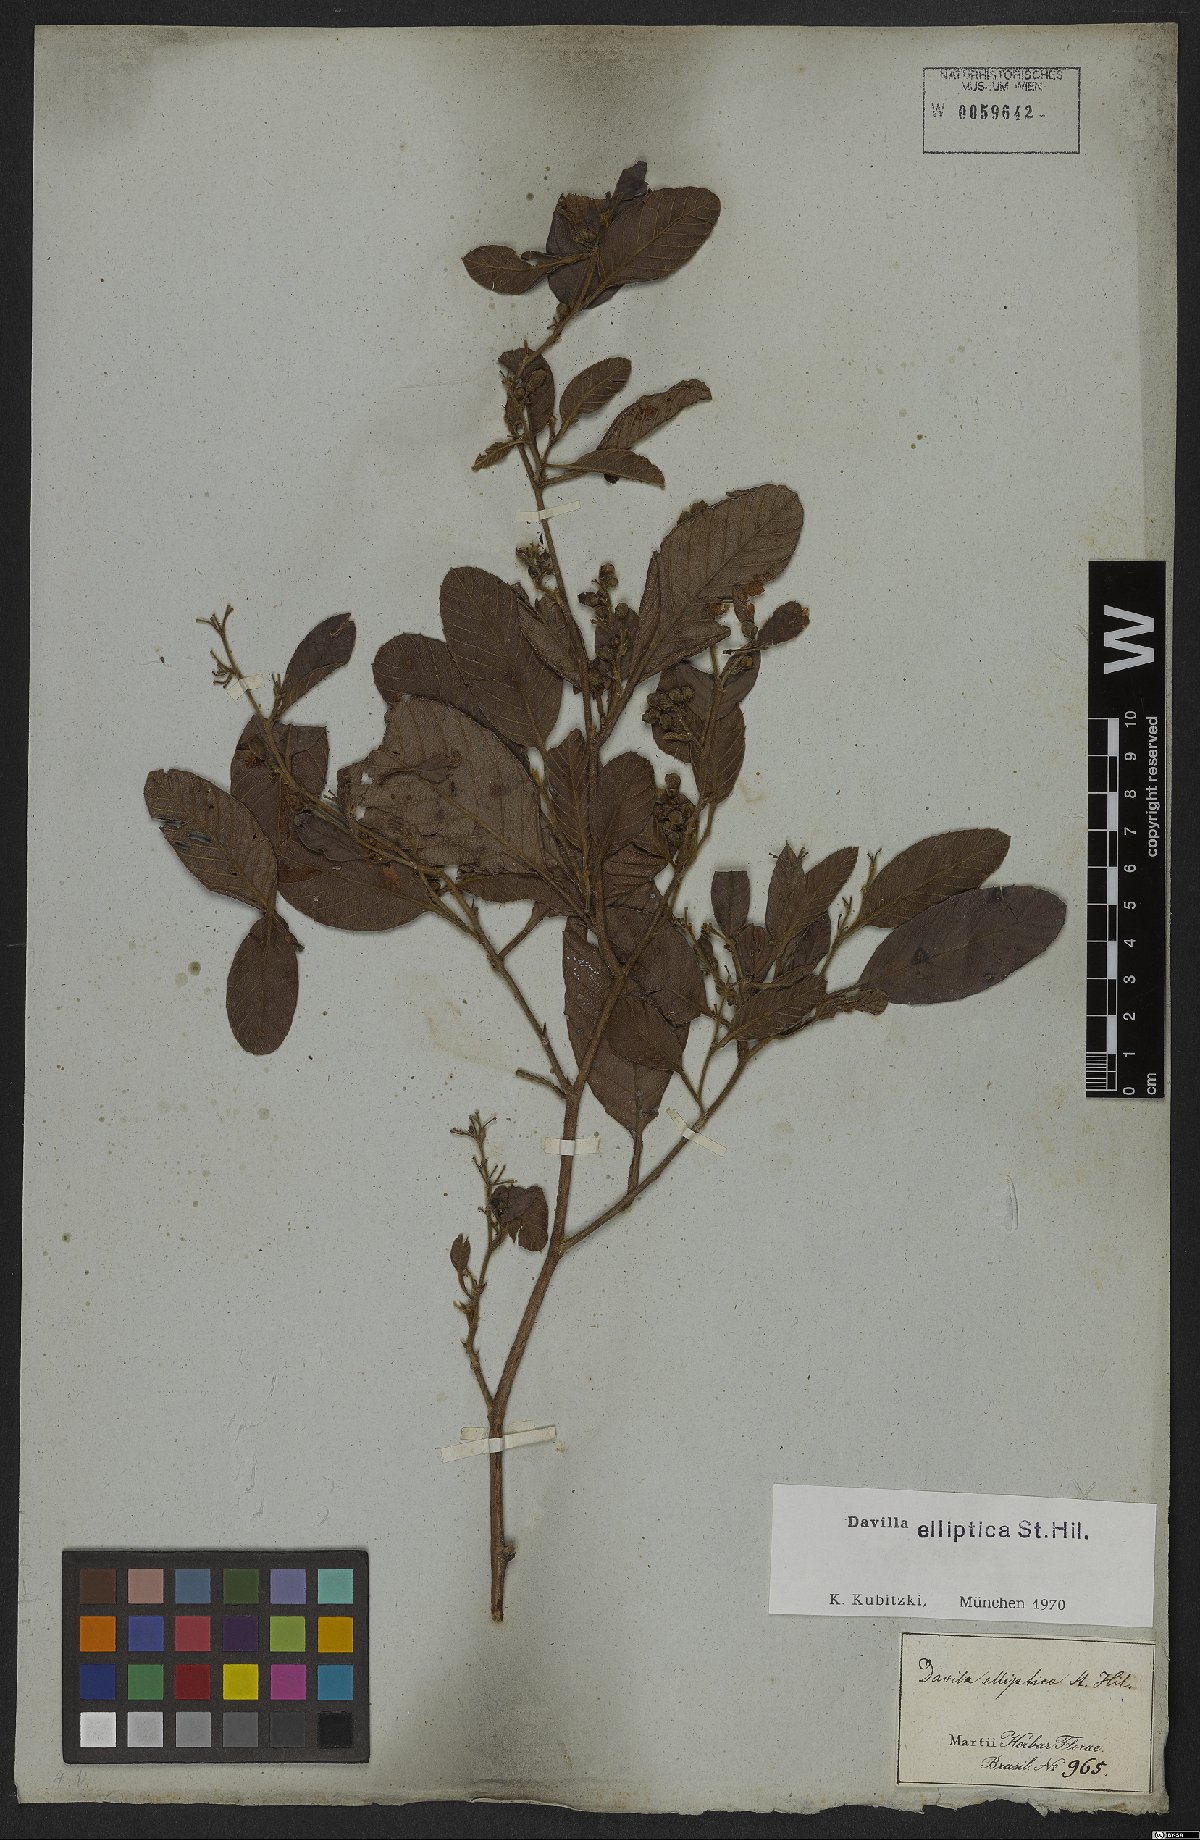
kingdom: Plantae
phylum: Tracheophyta
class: Magnoliopsida
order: Dilleniales
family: Dilleniaceae
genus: Davilla
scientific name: Davilla elliptica
